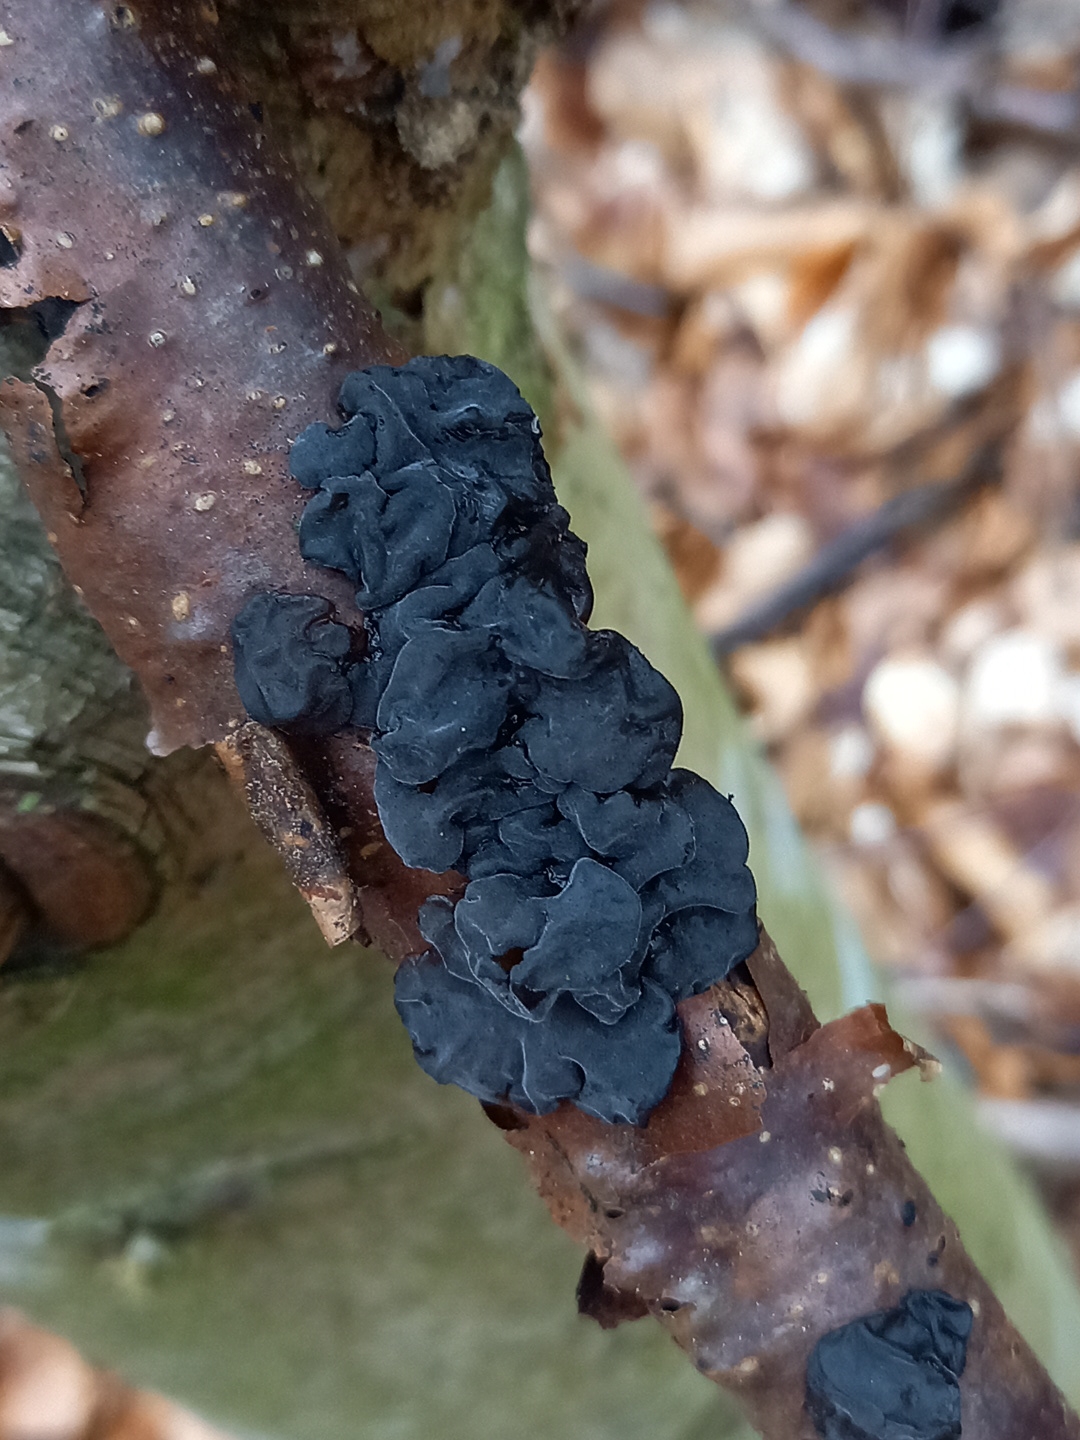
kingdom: Fungi
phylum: Basidiomycota
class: Agaricomycetes
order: Auriculariales
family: Auriculariaceae
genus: Exidia
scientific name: Exidia nigricans
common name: almindelig bævretop
